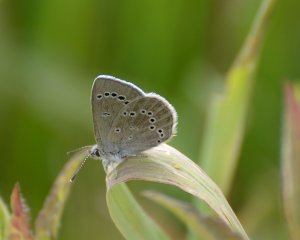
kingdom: Animalia
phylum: Arthropoda
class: Insecta
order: Lepidoptera
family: Lycaenidae
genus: Glaucopsyche
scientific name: Glaucopsyche lygdamus
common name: Silvery Blue
